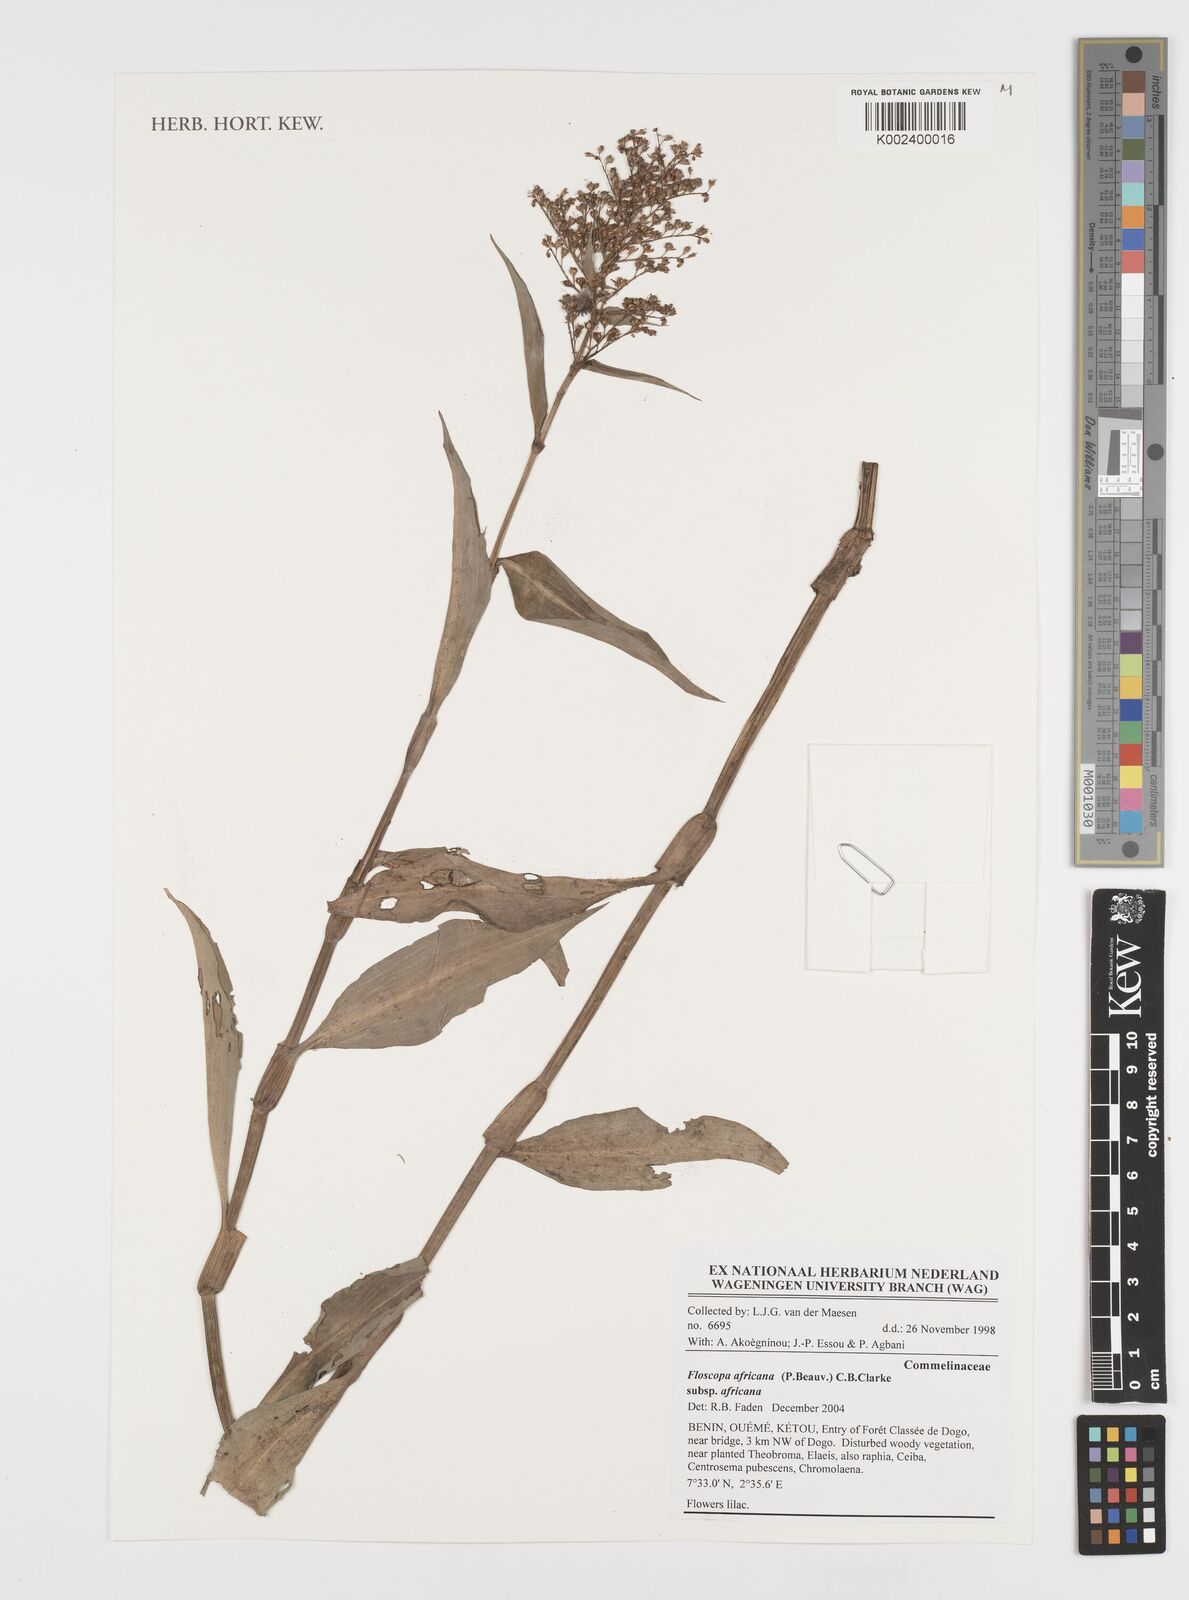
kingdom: Plantae
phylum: Tracheophyta
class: Liliopsida
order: Commelinales
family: Commelinaceae
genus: Floscopa
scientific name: Floscopa africana
